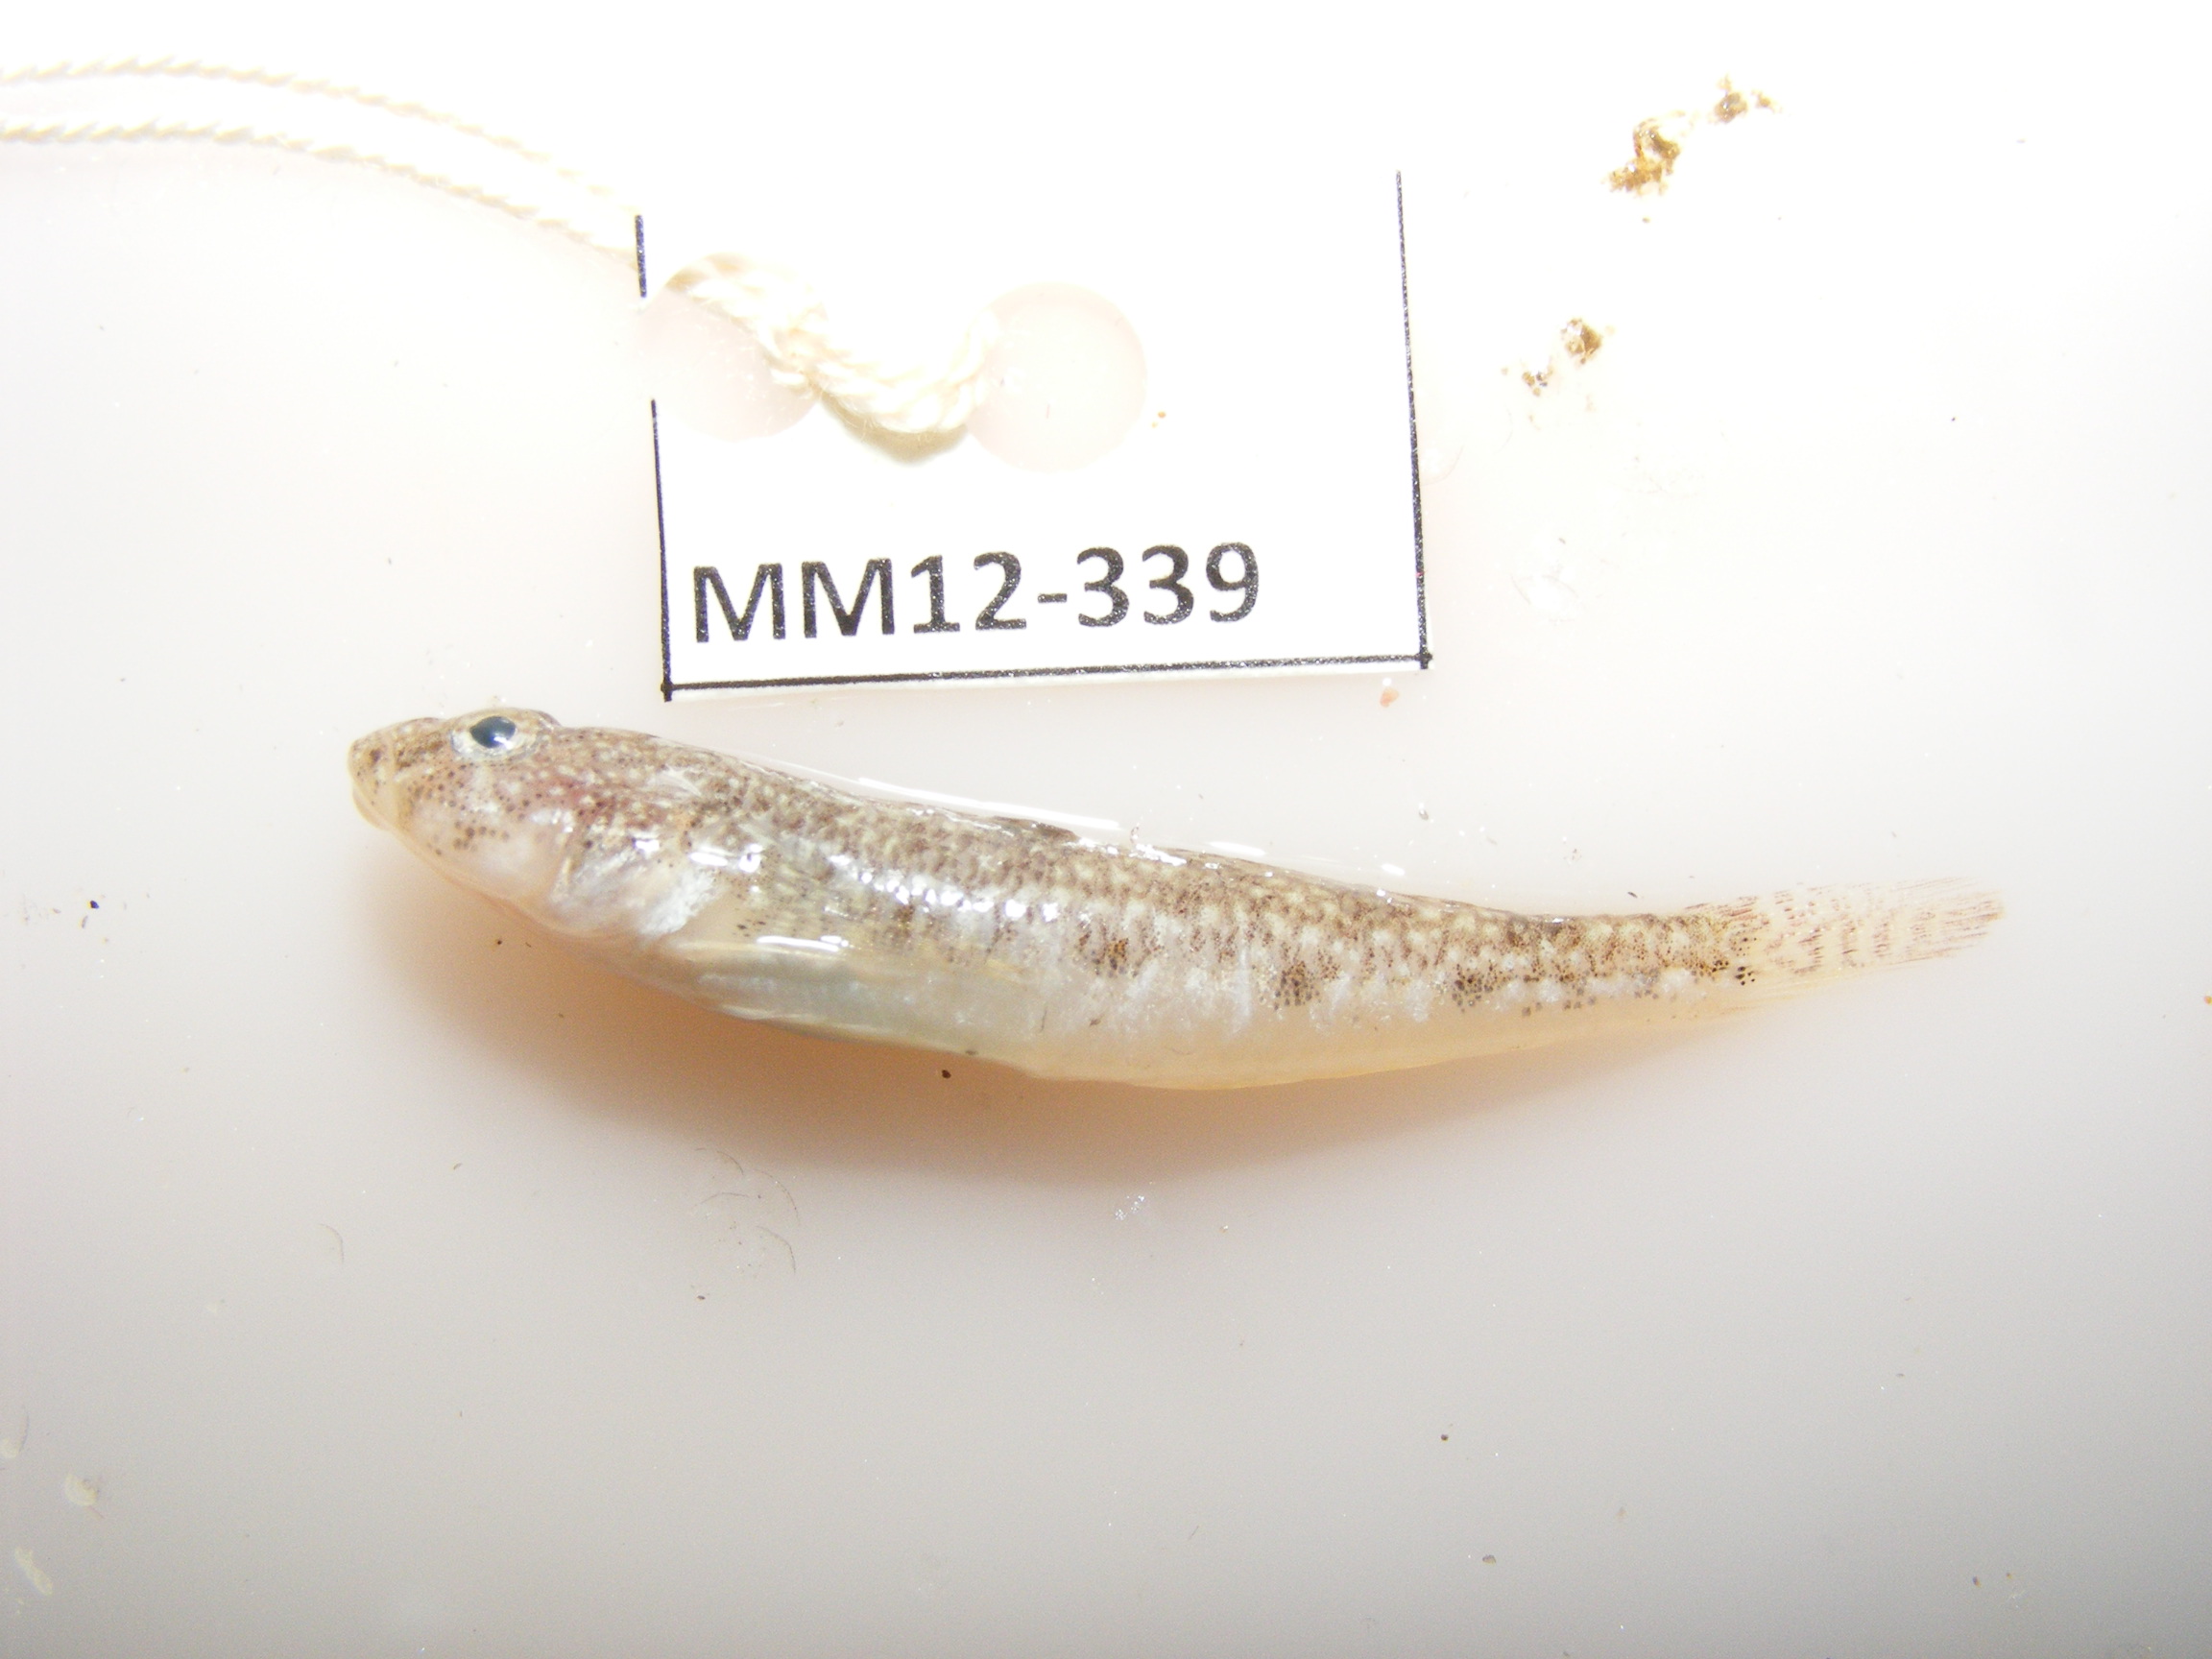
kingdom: Animalia
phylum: Chordata
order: Perciformes
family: Gobiidae
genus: Psammogobius
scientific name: Psammogobius
